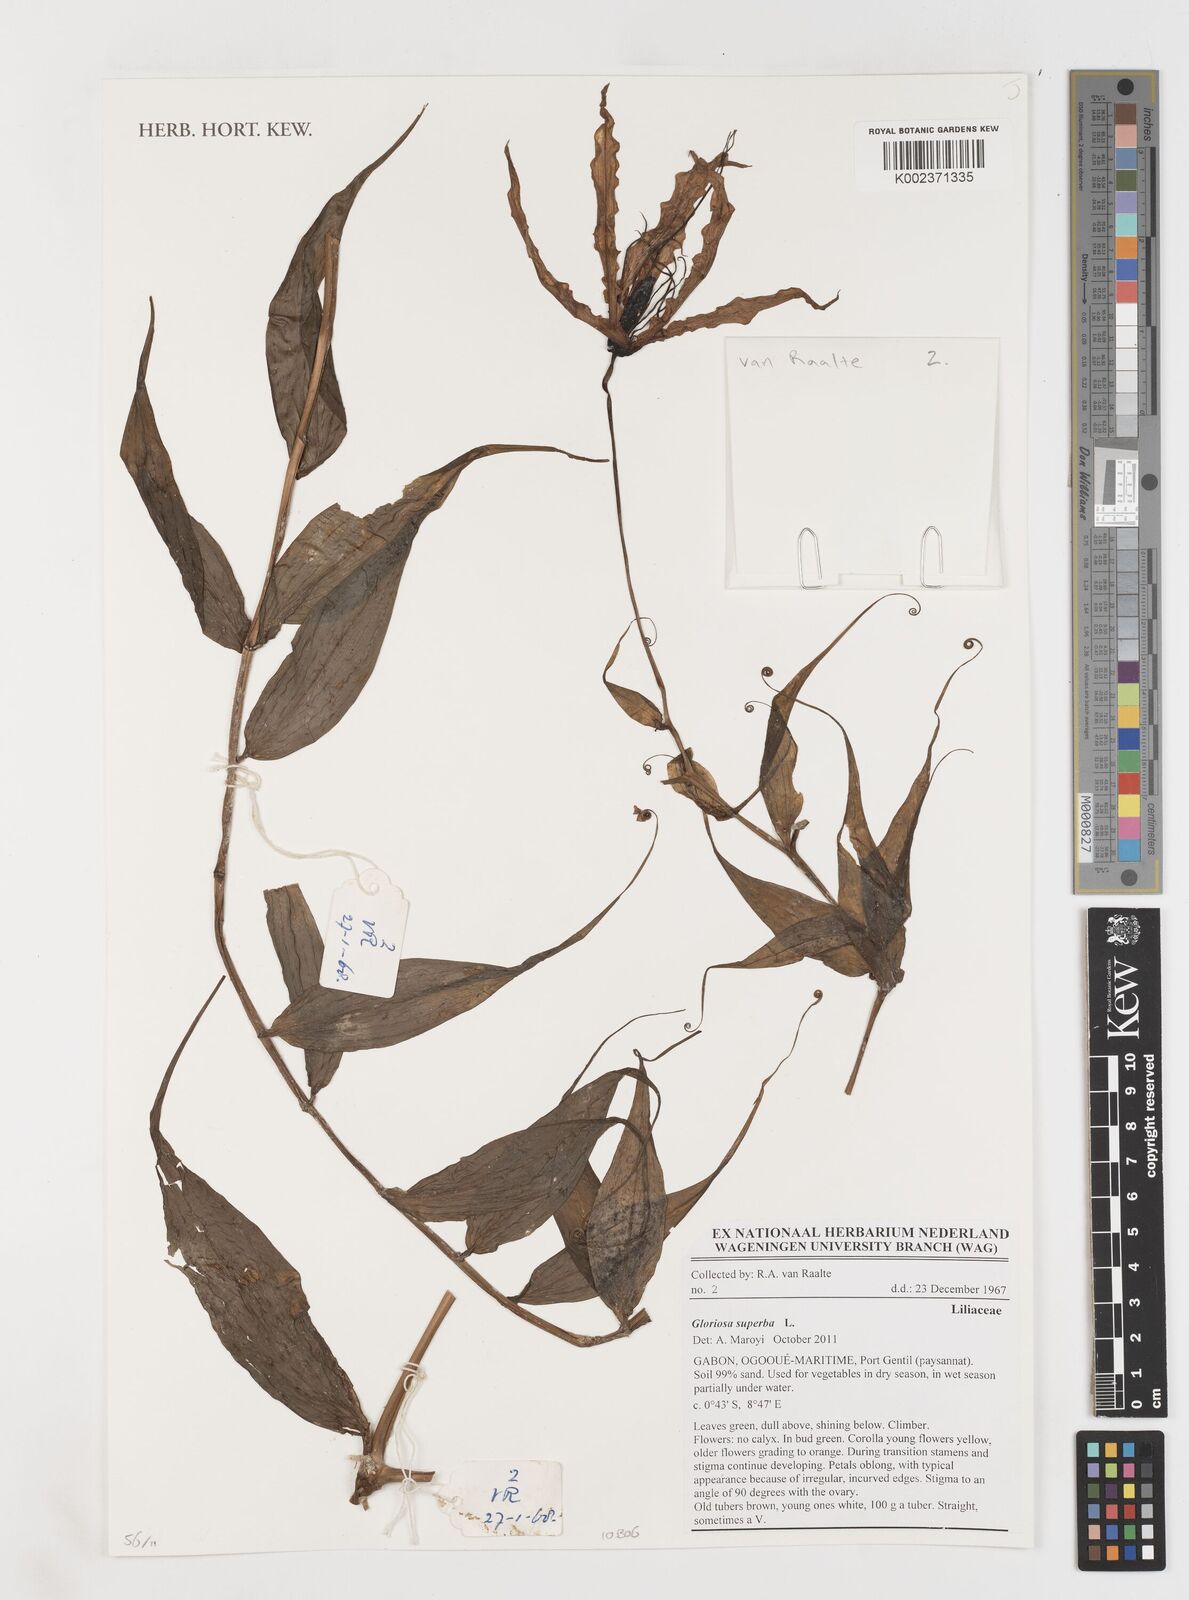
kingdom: Plantae
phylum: Tracheophyta
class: Liliopsida
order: Liliales
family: Colchicaceae
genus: Gloriosa
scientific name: Gloriosa superba
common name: Flame lily
